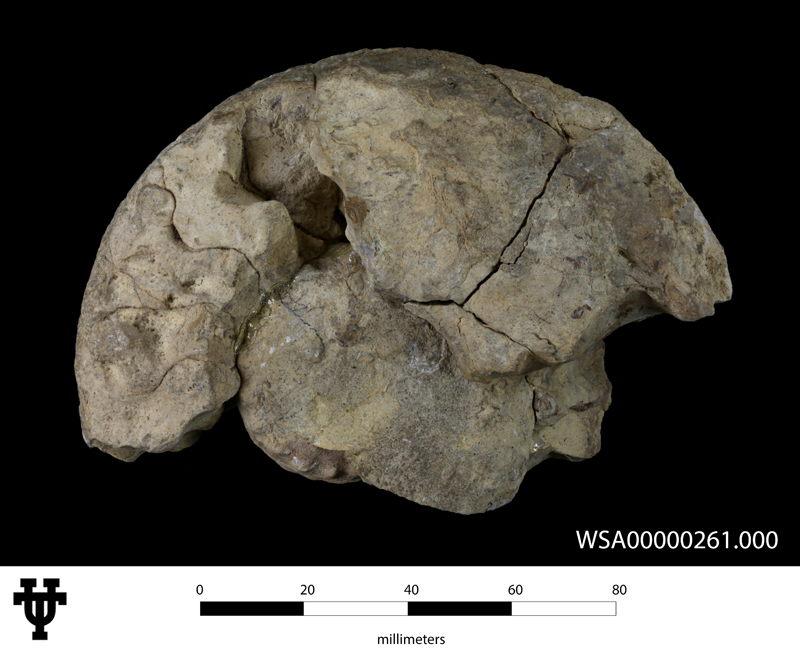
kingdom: Animalia
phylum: Mollusca
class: Cephalopoda
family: Muniericeratidae
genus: Pseudoschloenbachia
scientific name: Pseudoschloenbachia mexicana
